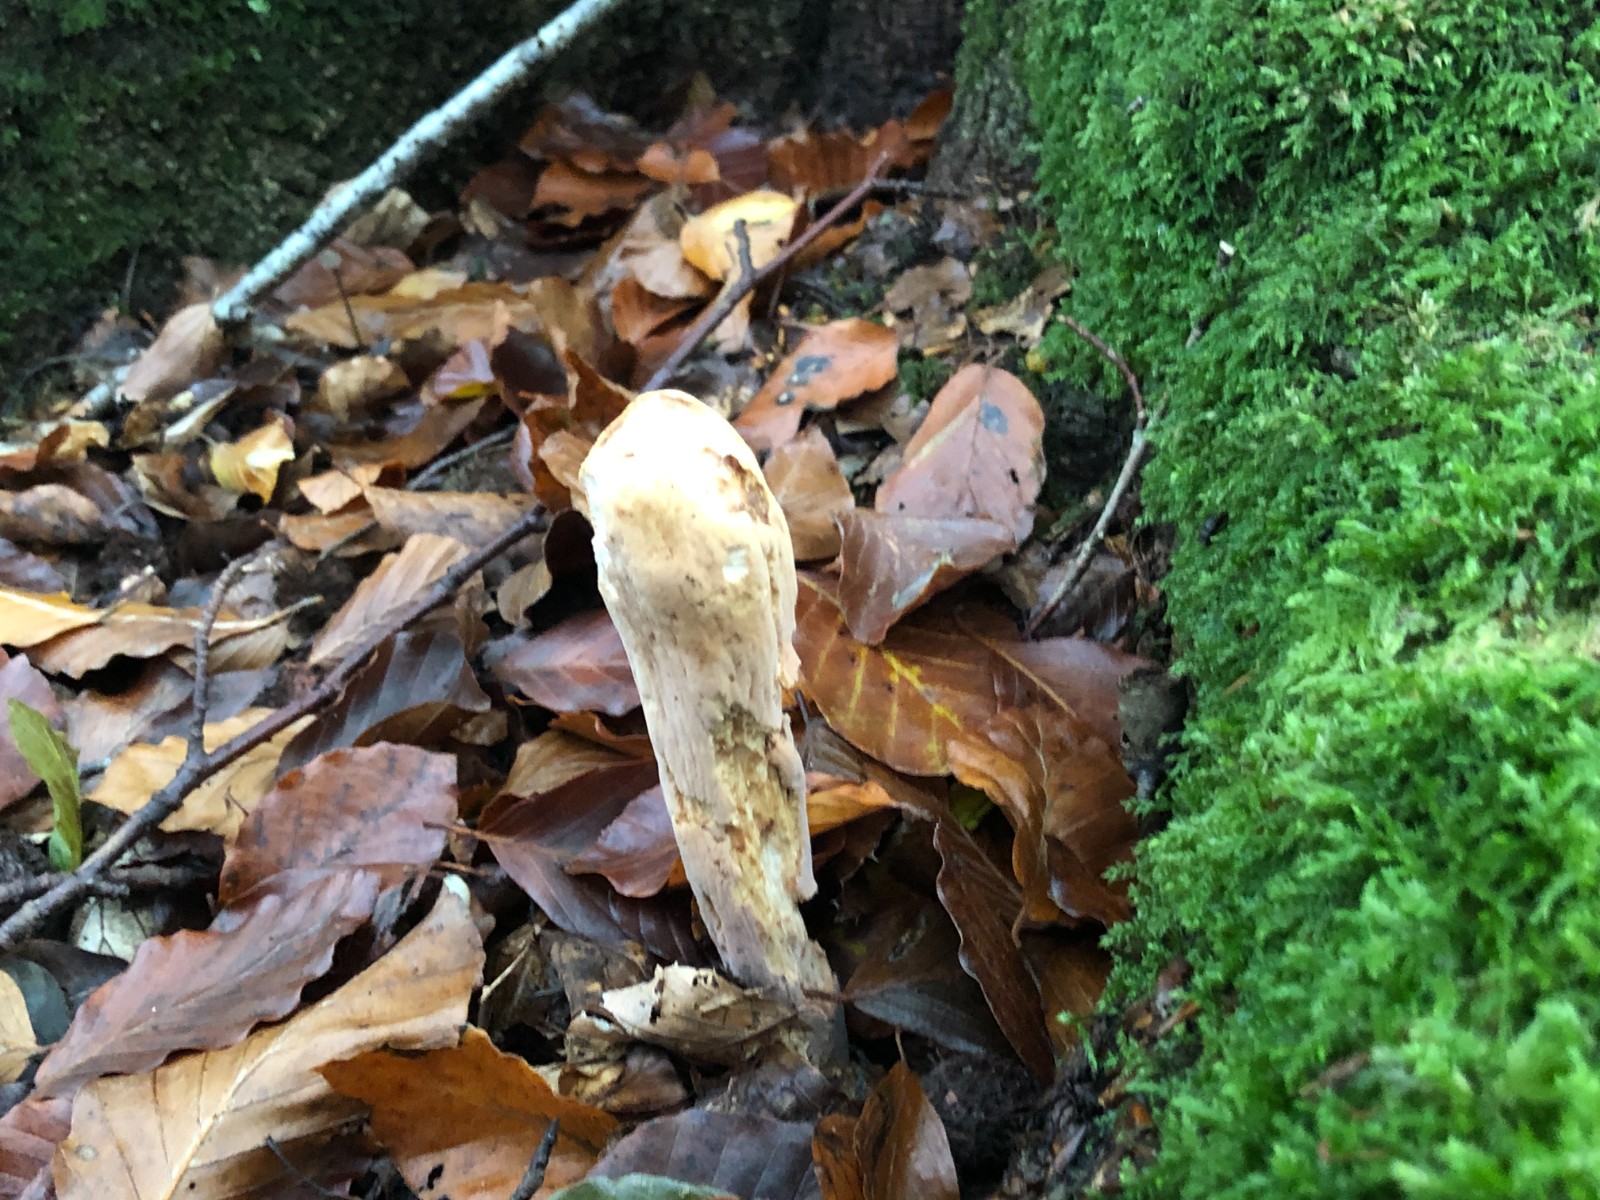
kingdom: Fungi
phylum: Basidiomycota
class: Agaricomycetes
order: Gomphales
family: Clavariadelphaceae
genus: Clavariadelphus
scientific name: Clavariadelphus pistillaris
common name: herkules-kæmpekølle
